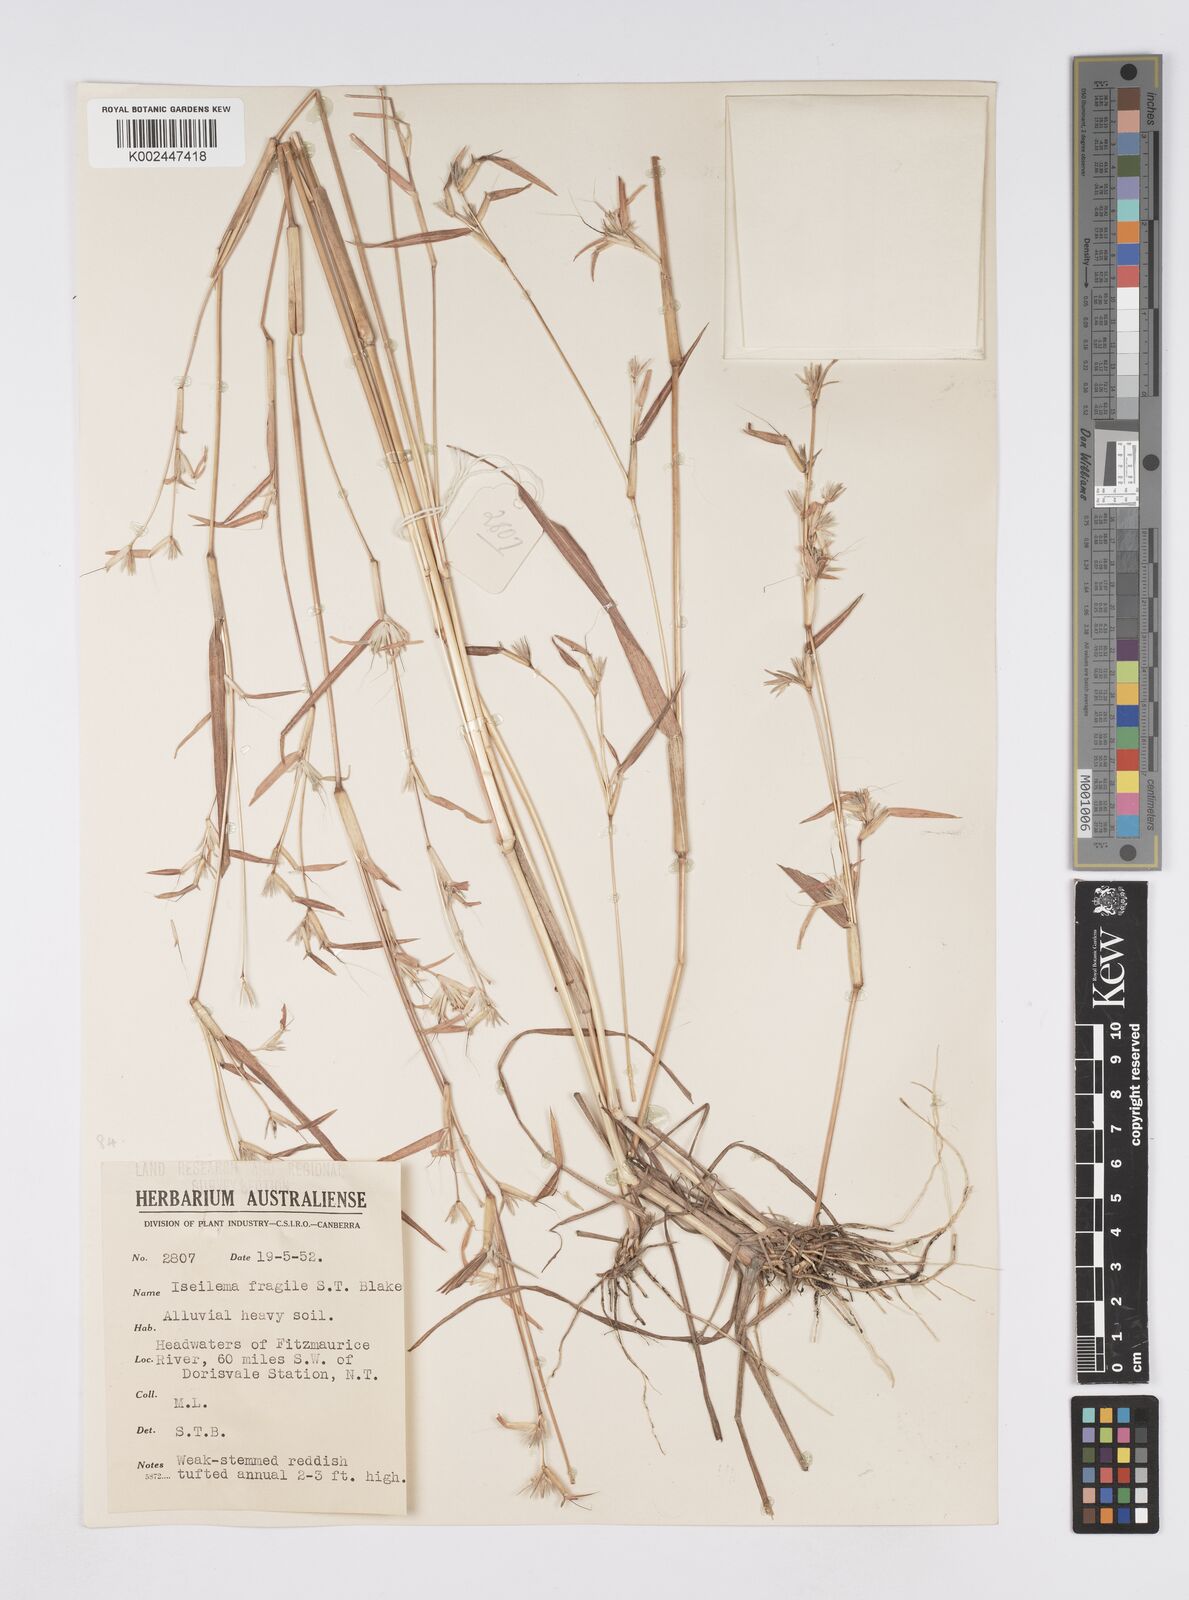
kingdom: Plantae
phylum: Tracheophyta
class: Liliopsida
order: Poales
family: Poaceae
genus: Iseilema
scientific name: Iseilema fragile
